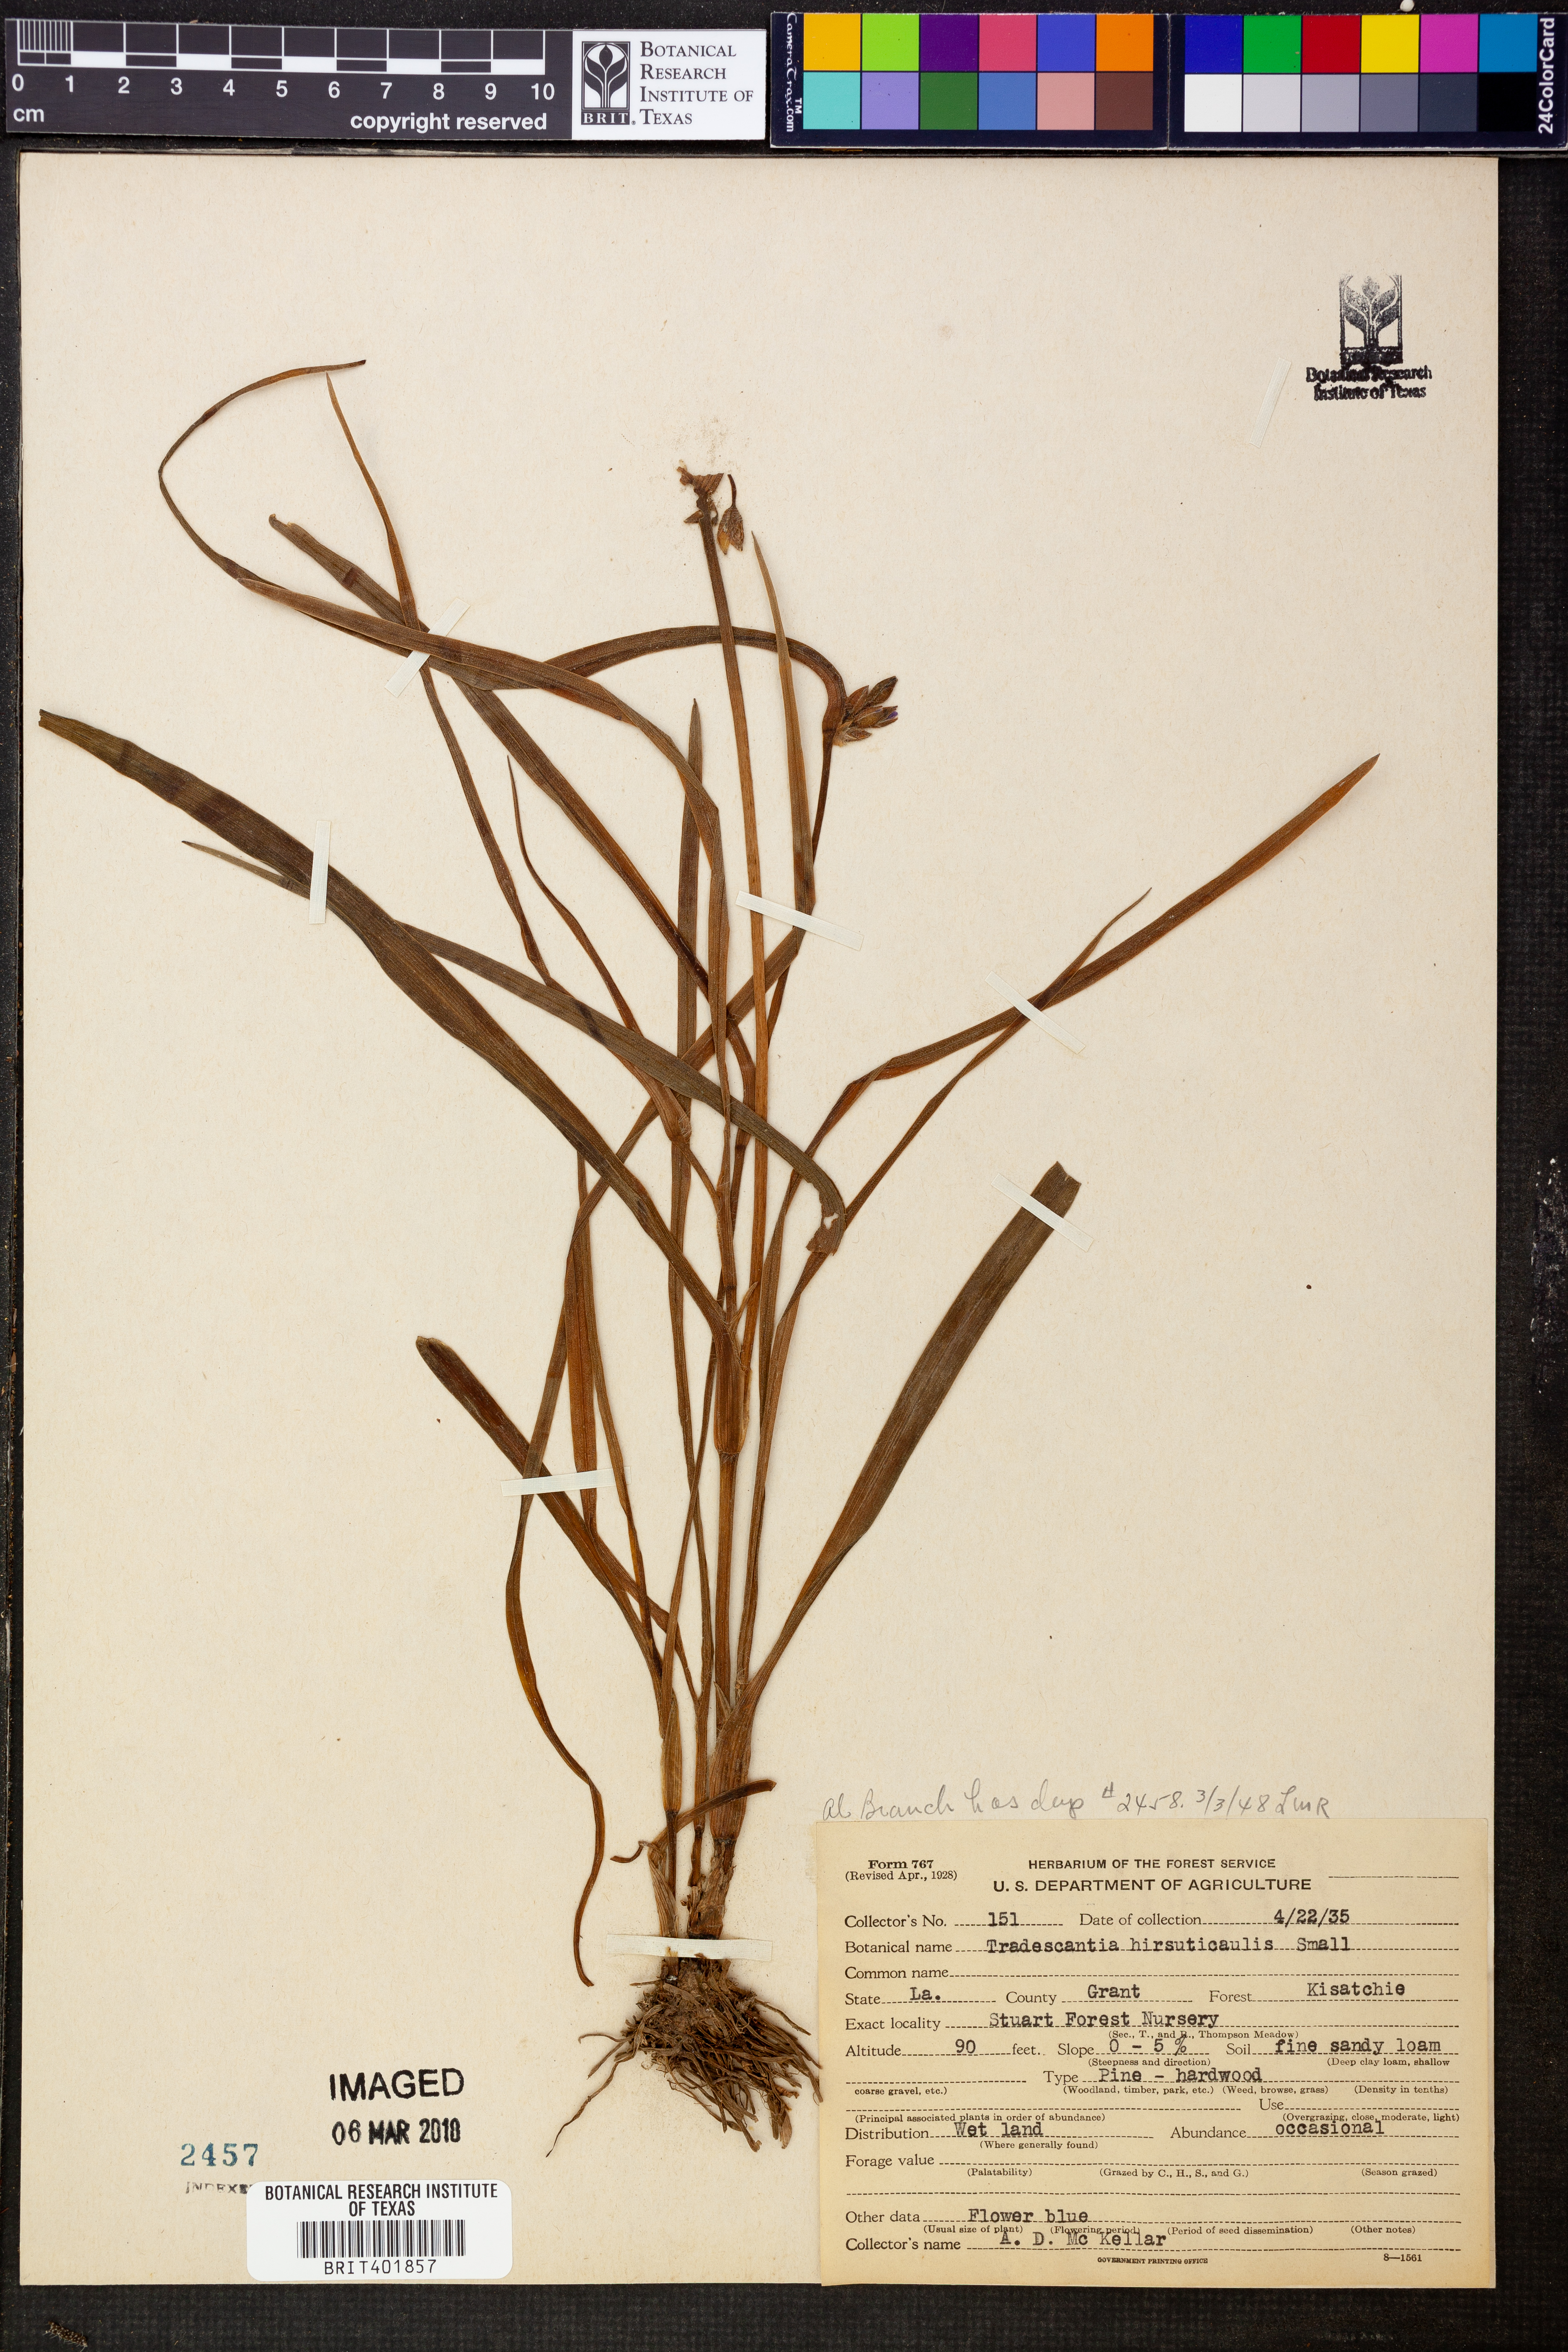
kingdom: Plantae
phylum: Tracheophyta
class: Liliopsida
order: Commelinales
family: Commelinaceae
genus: Tradescantia
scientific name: Tradescantia hirsuticaulis
